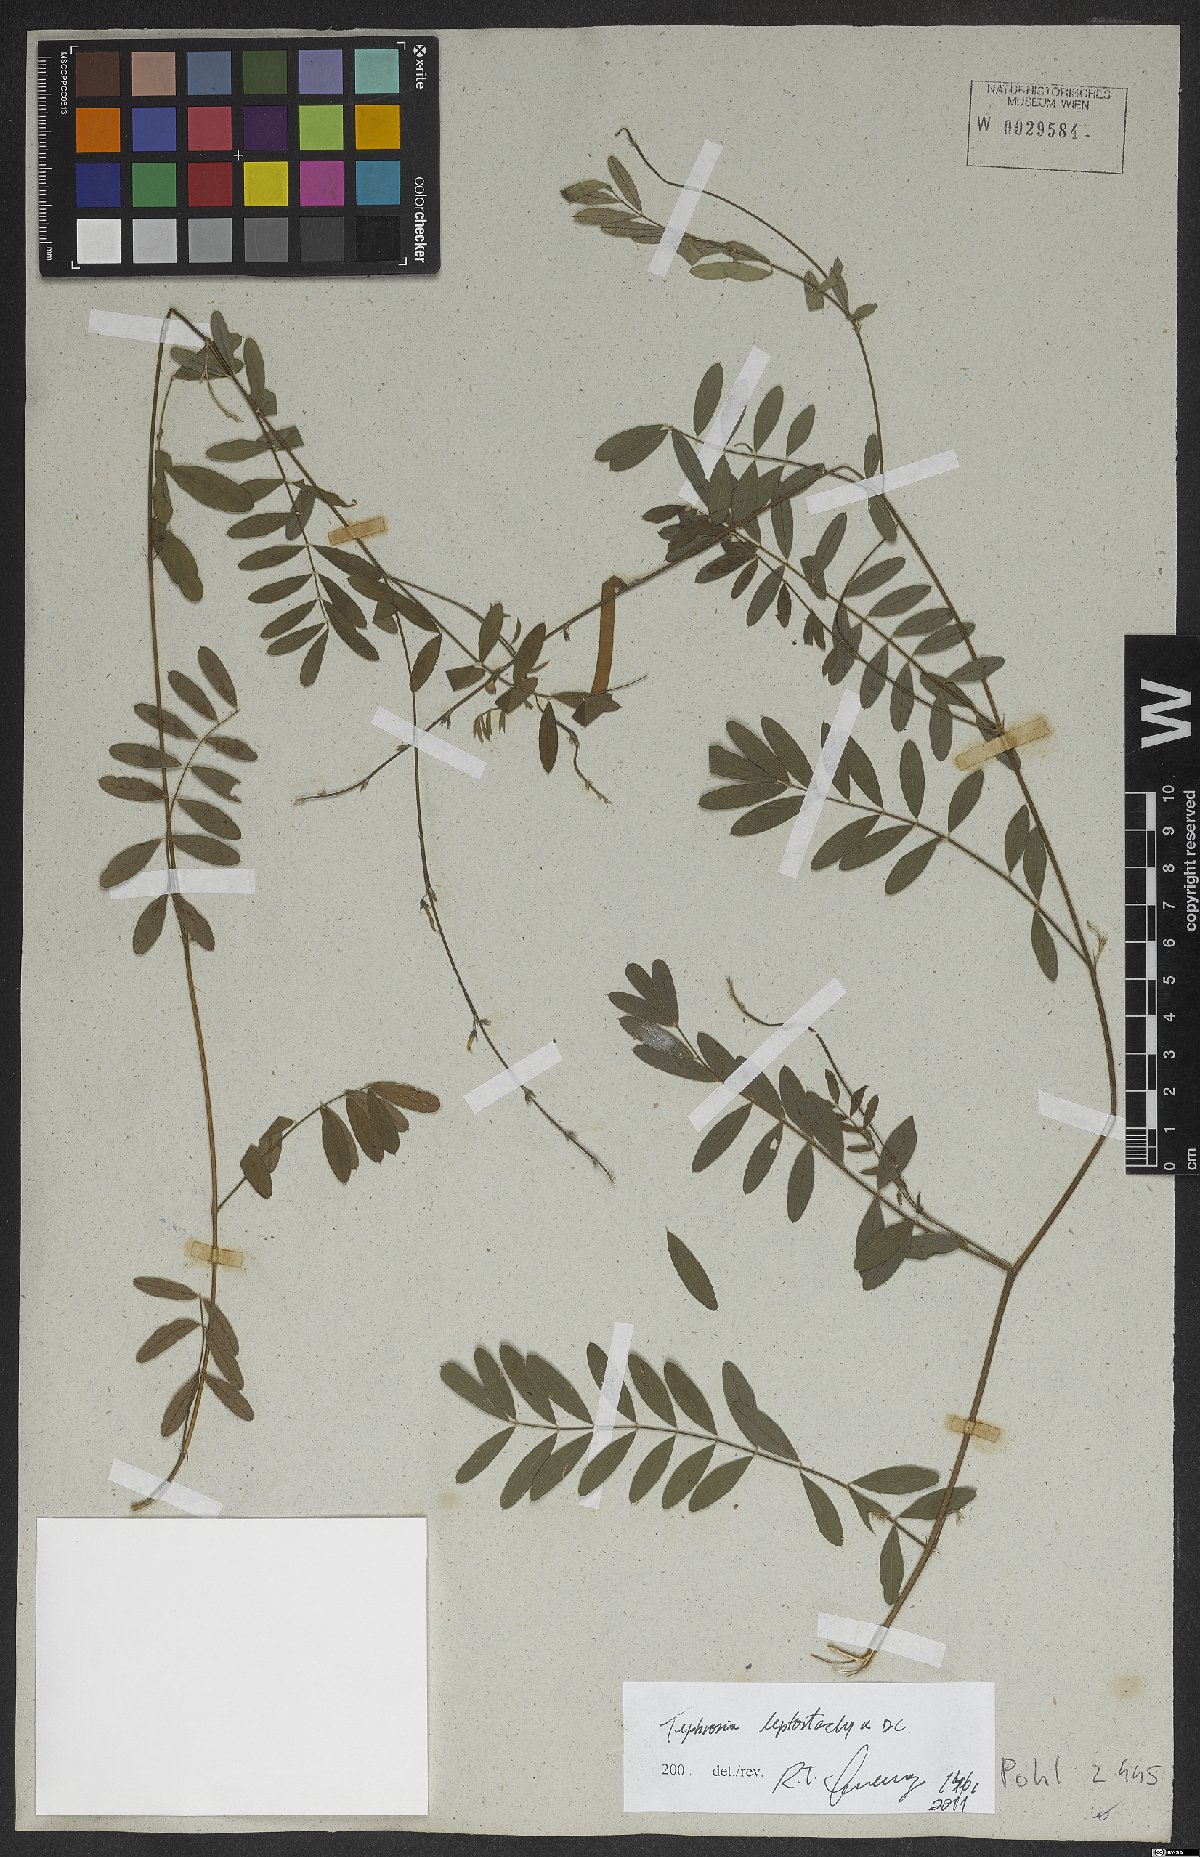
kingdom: Plantae
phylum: Tracheophyta
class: Magnoliopsida
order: Fabales
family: Fabaceae
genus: Tephrosia
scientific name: Tephrosia purpurea
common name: Fishpoison
